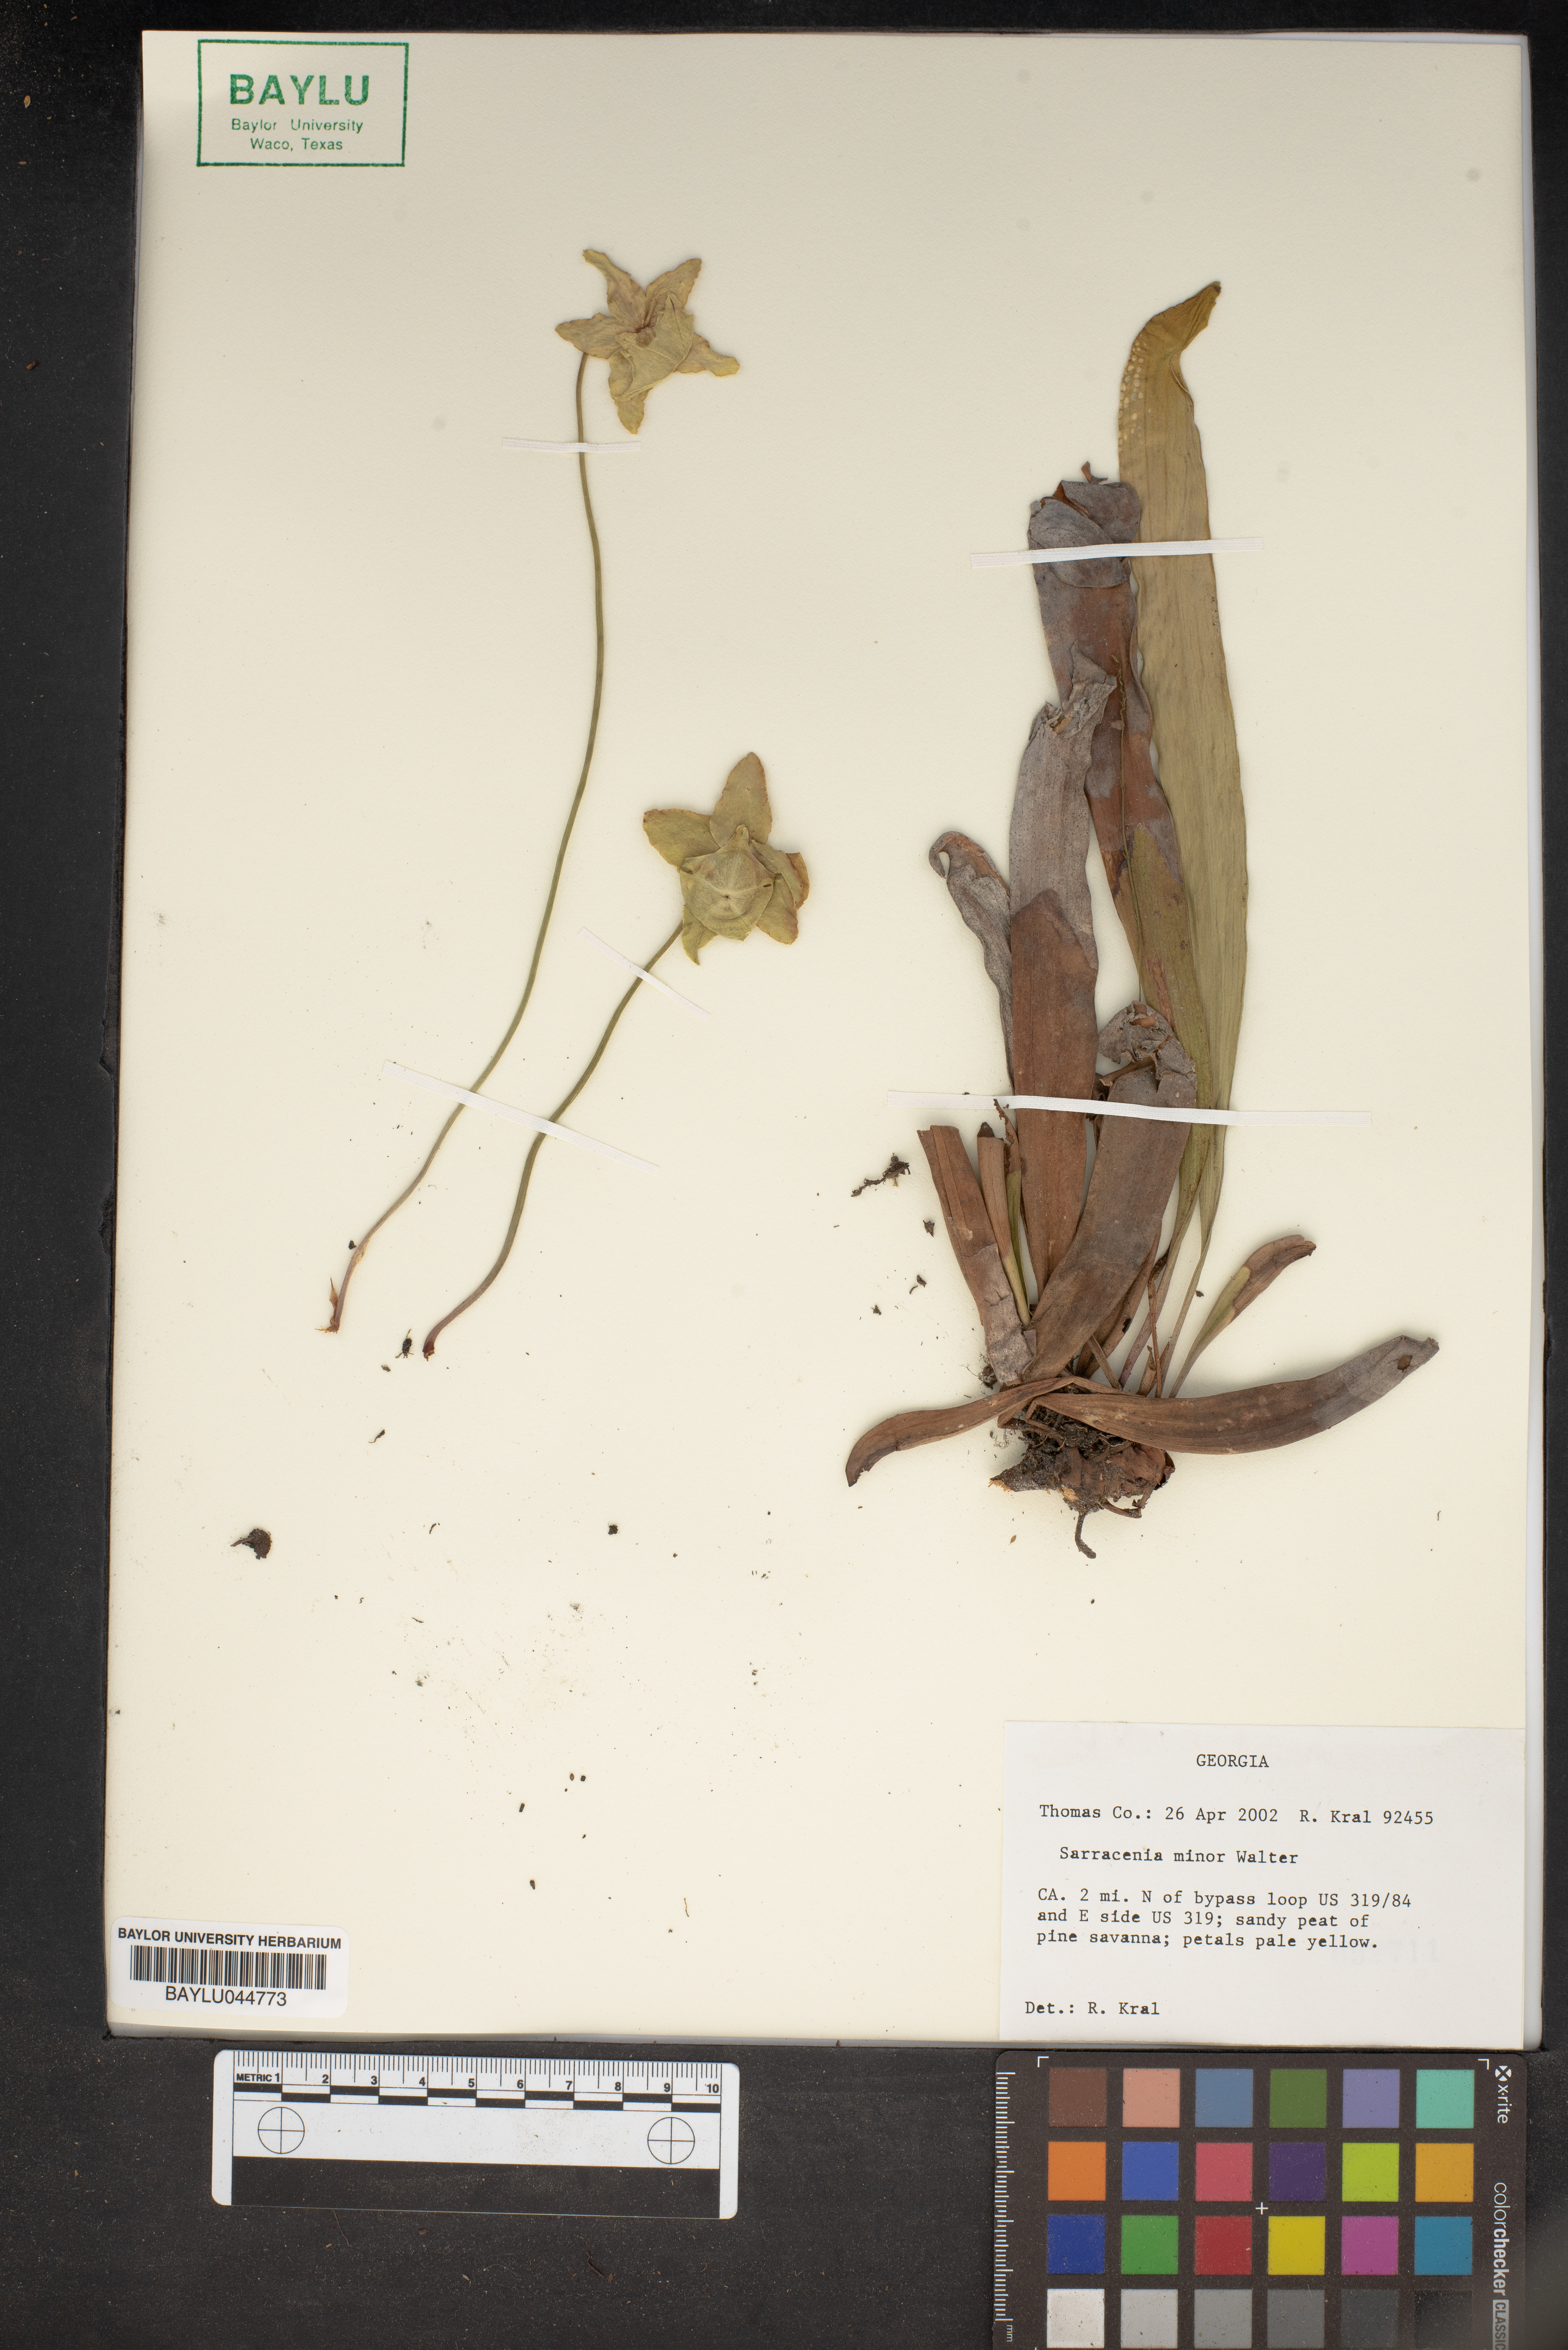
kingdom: Plantae
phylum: Tracheophyta
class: Magnoliopsida
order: Ericales
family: Sarraceniaceae
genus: Sarracenia
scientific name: Sarracenia minor
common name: Rainhat-trumpet
